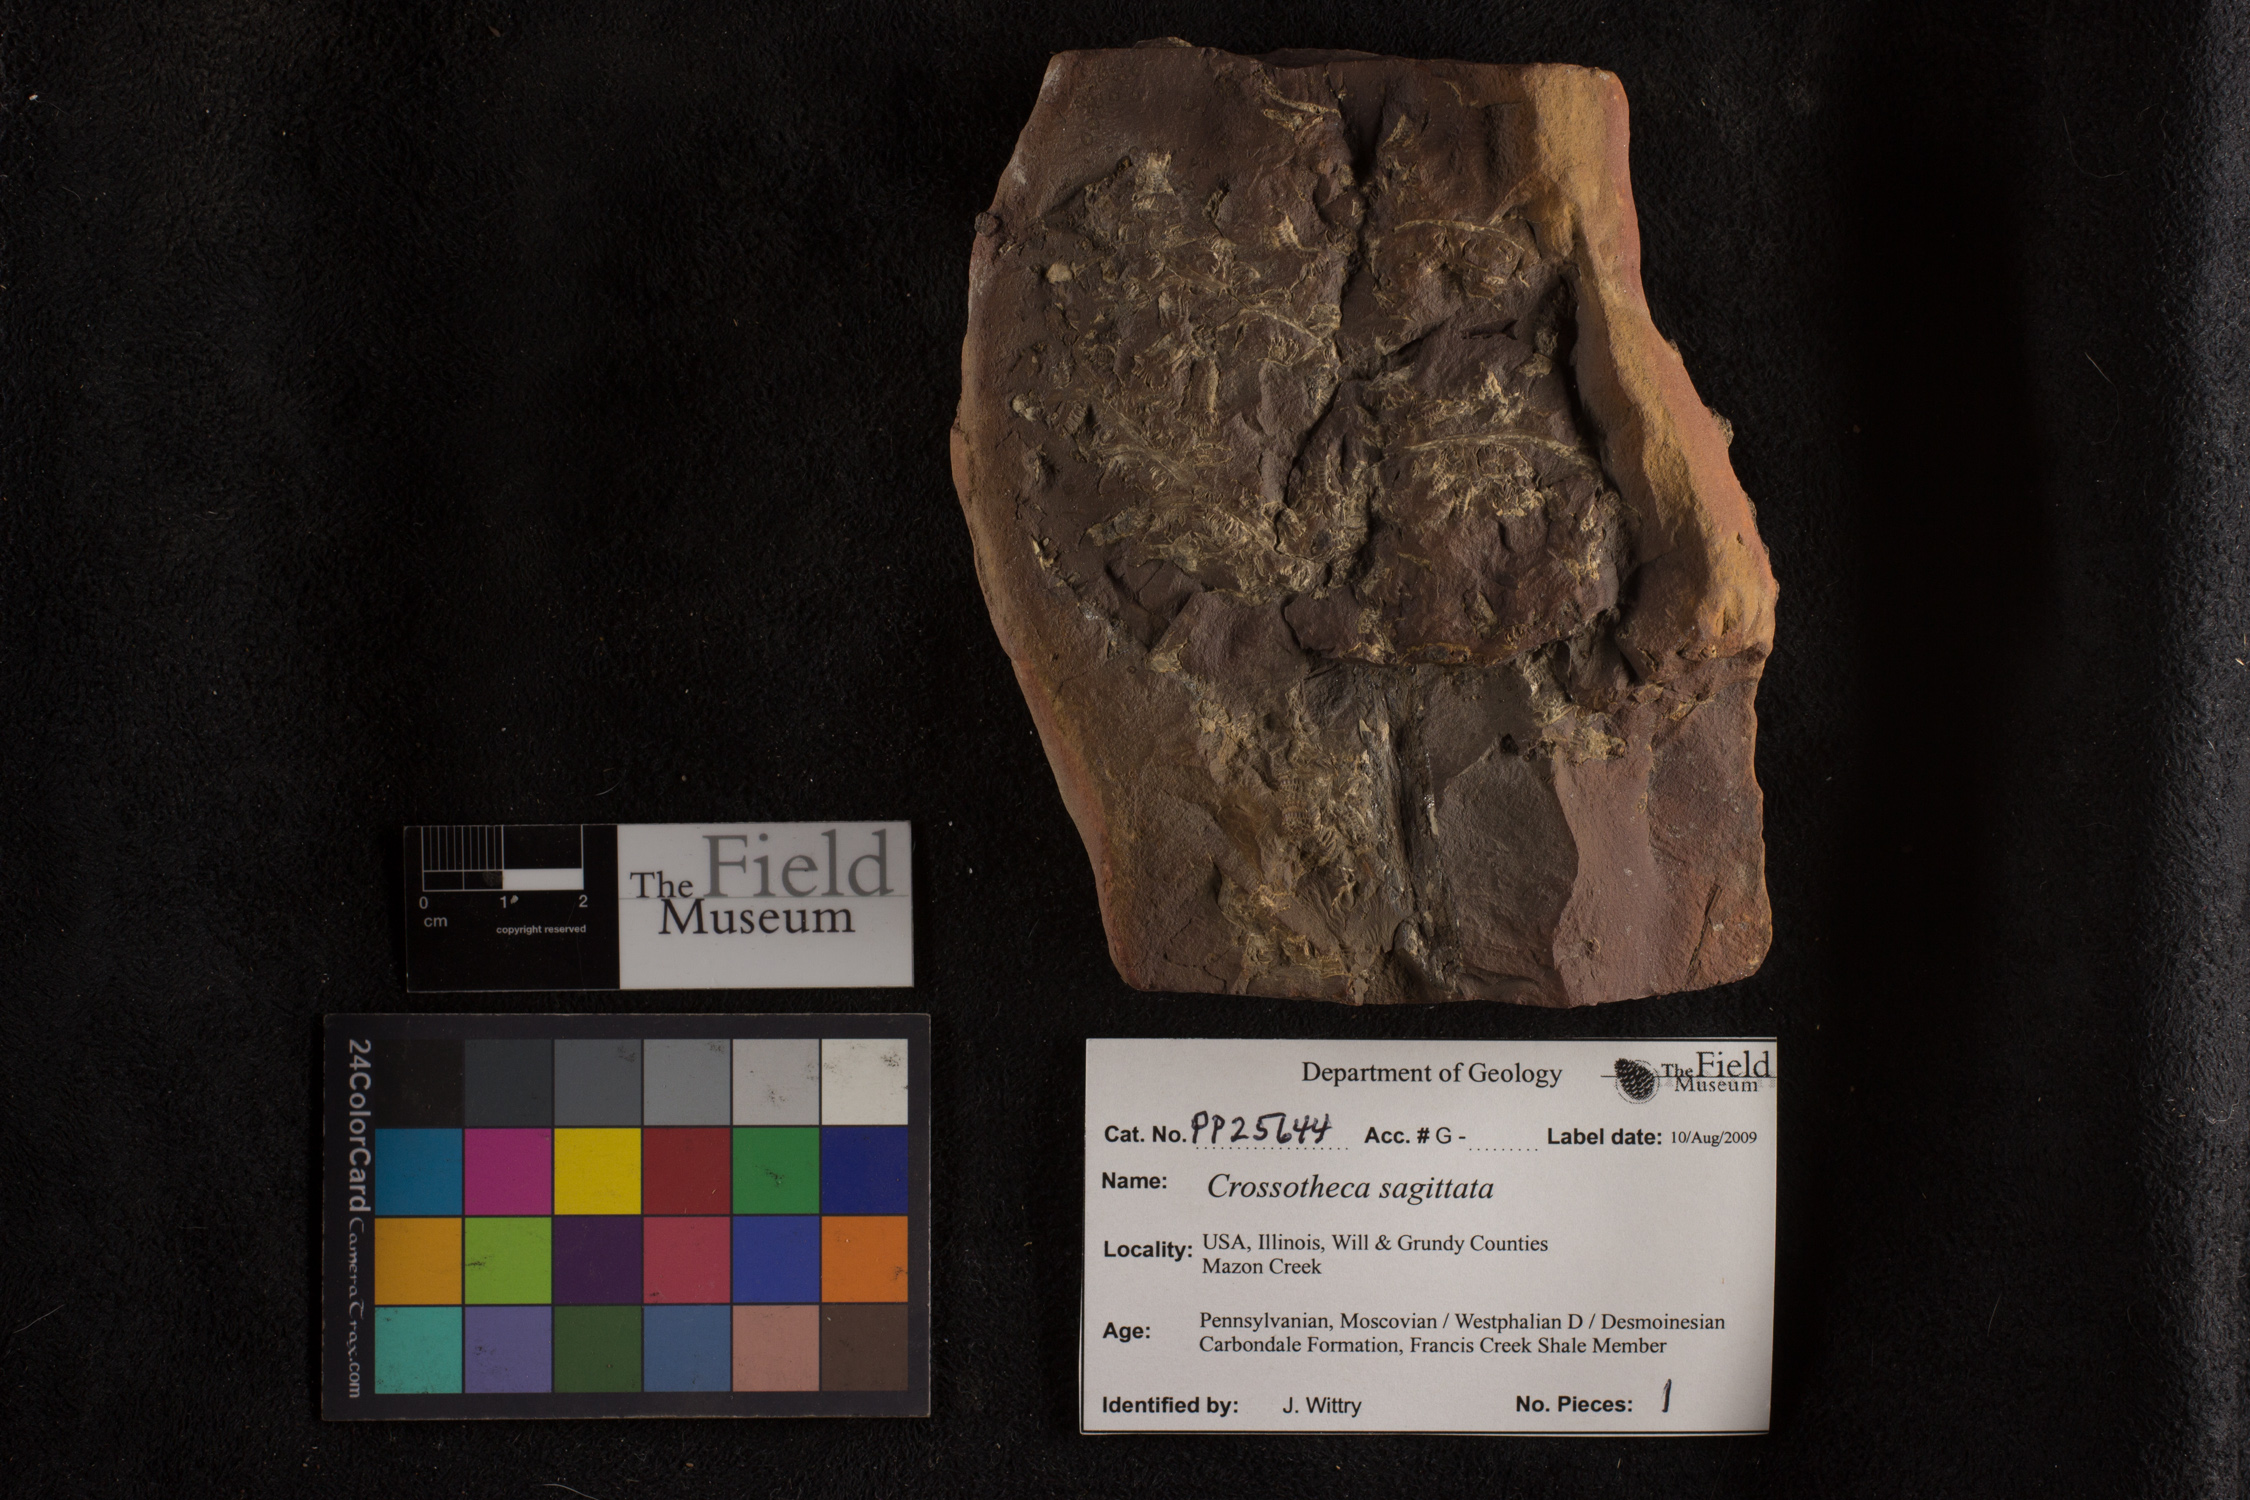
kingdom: Plantae
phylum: Tracheophyta
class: Polypodiopsida
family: Stauropteridaceae
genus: Crossotheca
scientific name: Crossotheca
